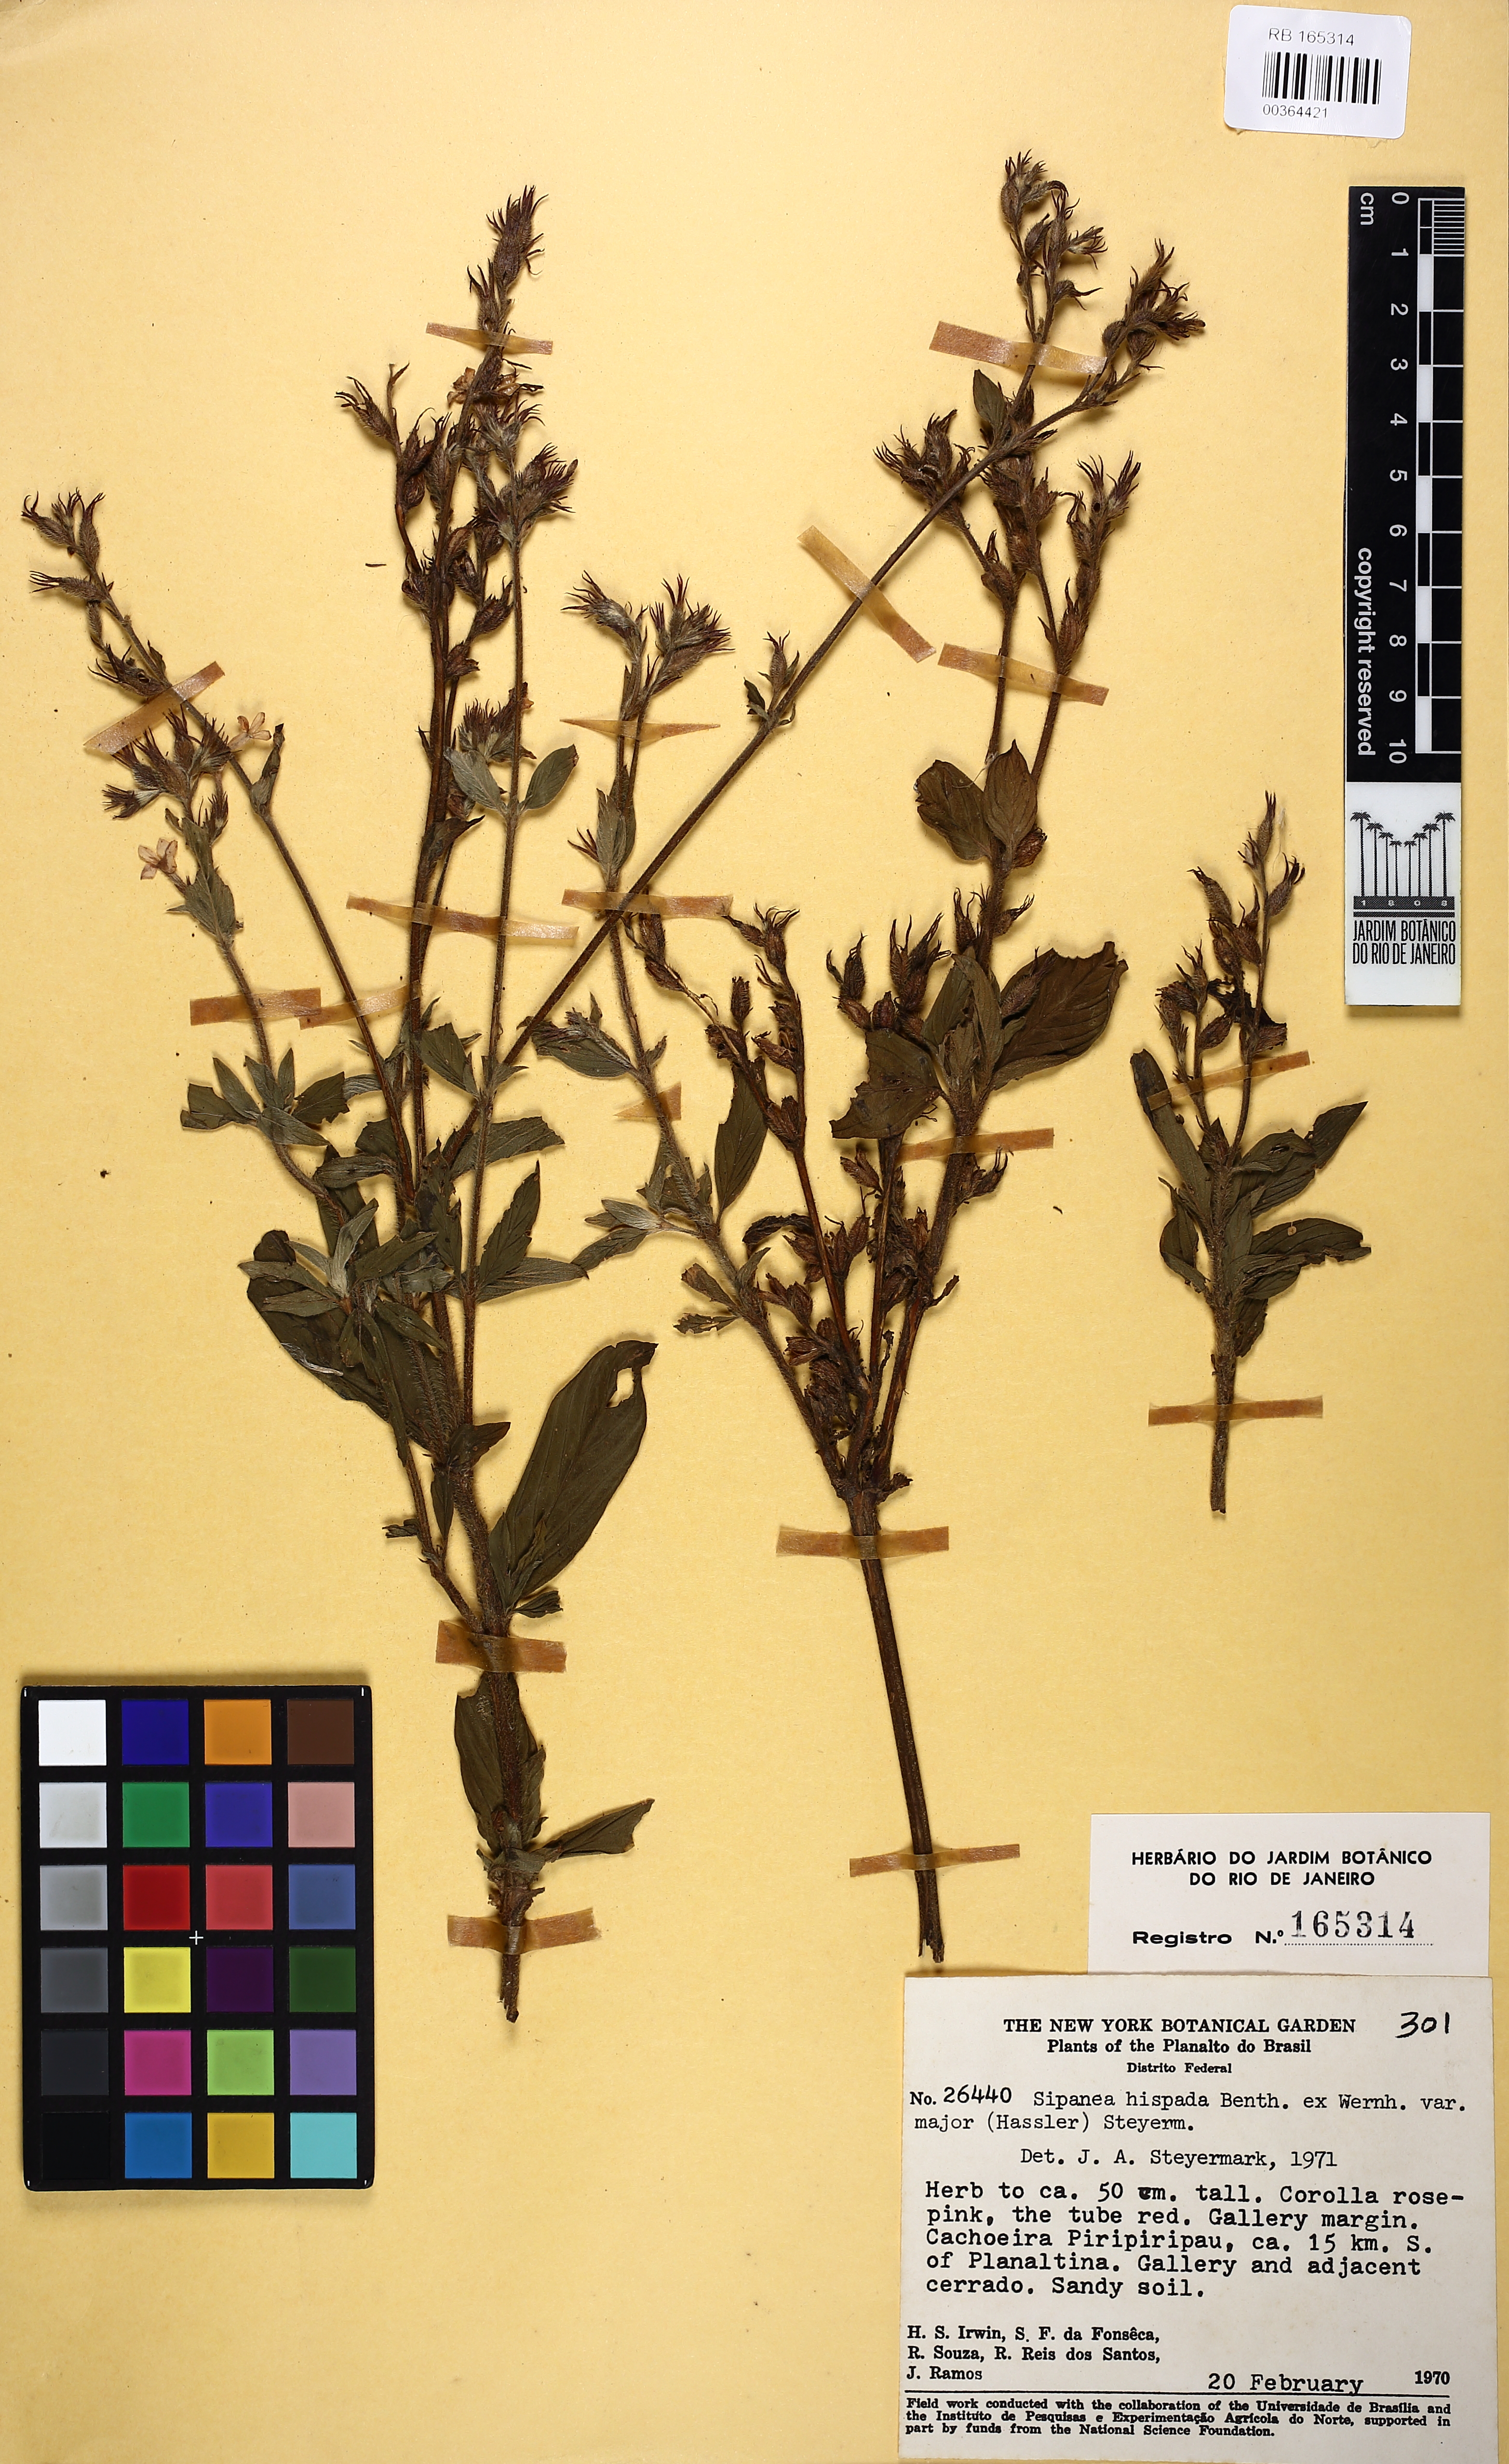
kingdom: Plantae
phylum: Tracheophyta
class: Magnoliopsida
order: Gentianales
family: Rubiaceae
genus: Sipanea
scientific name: Sipanea hispida
